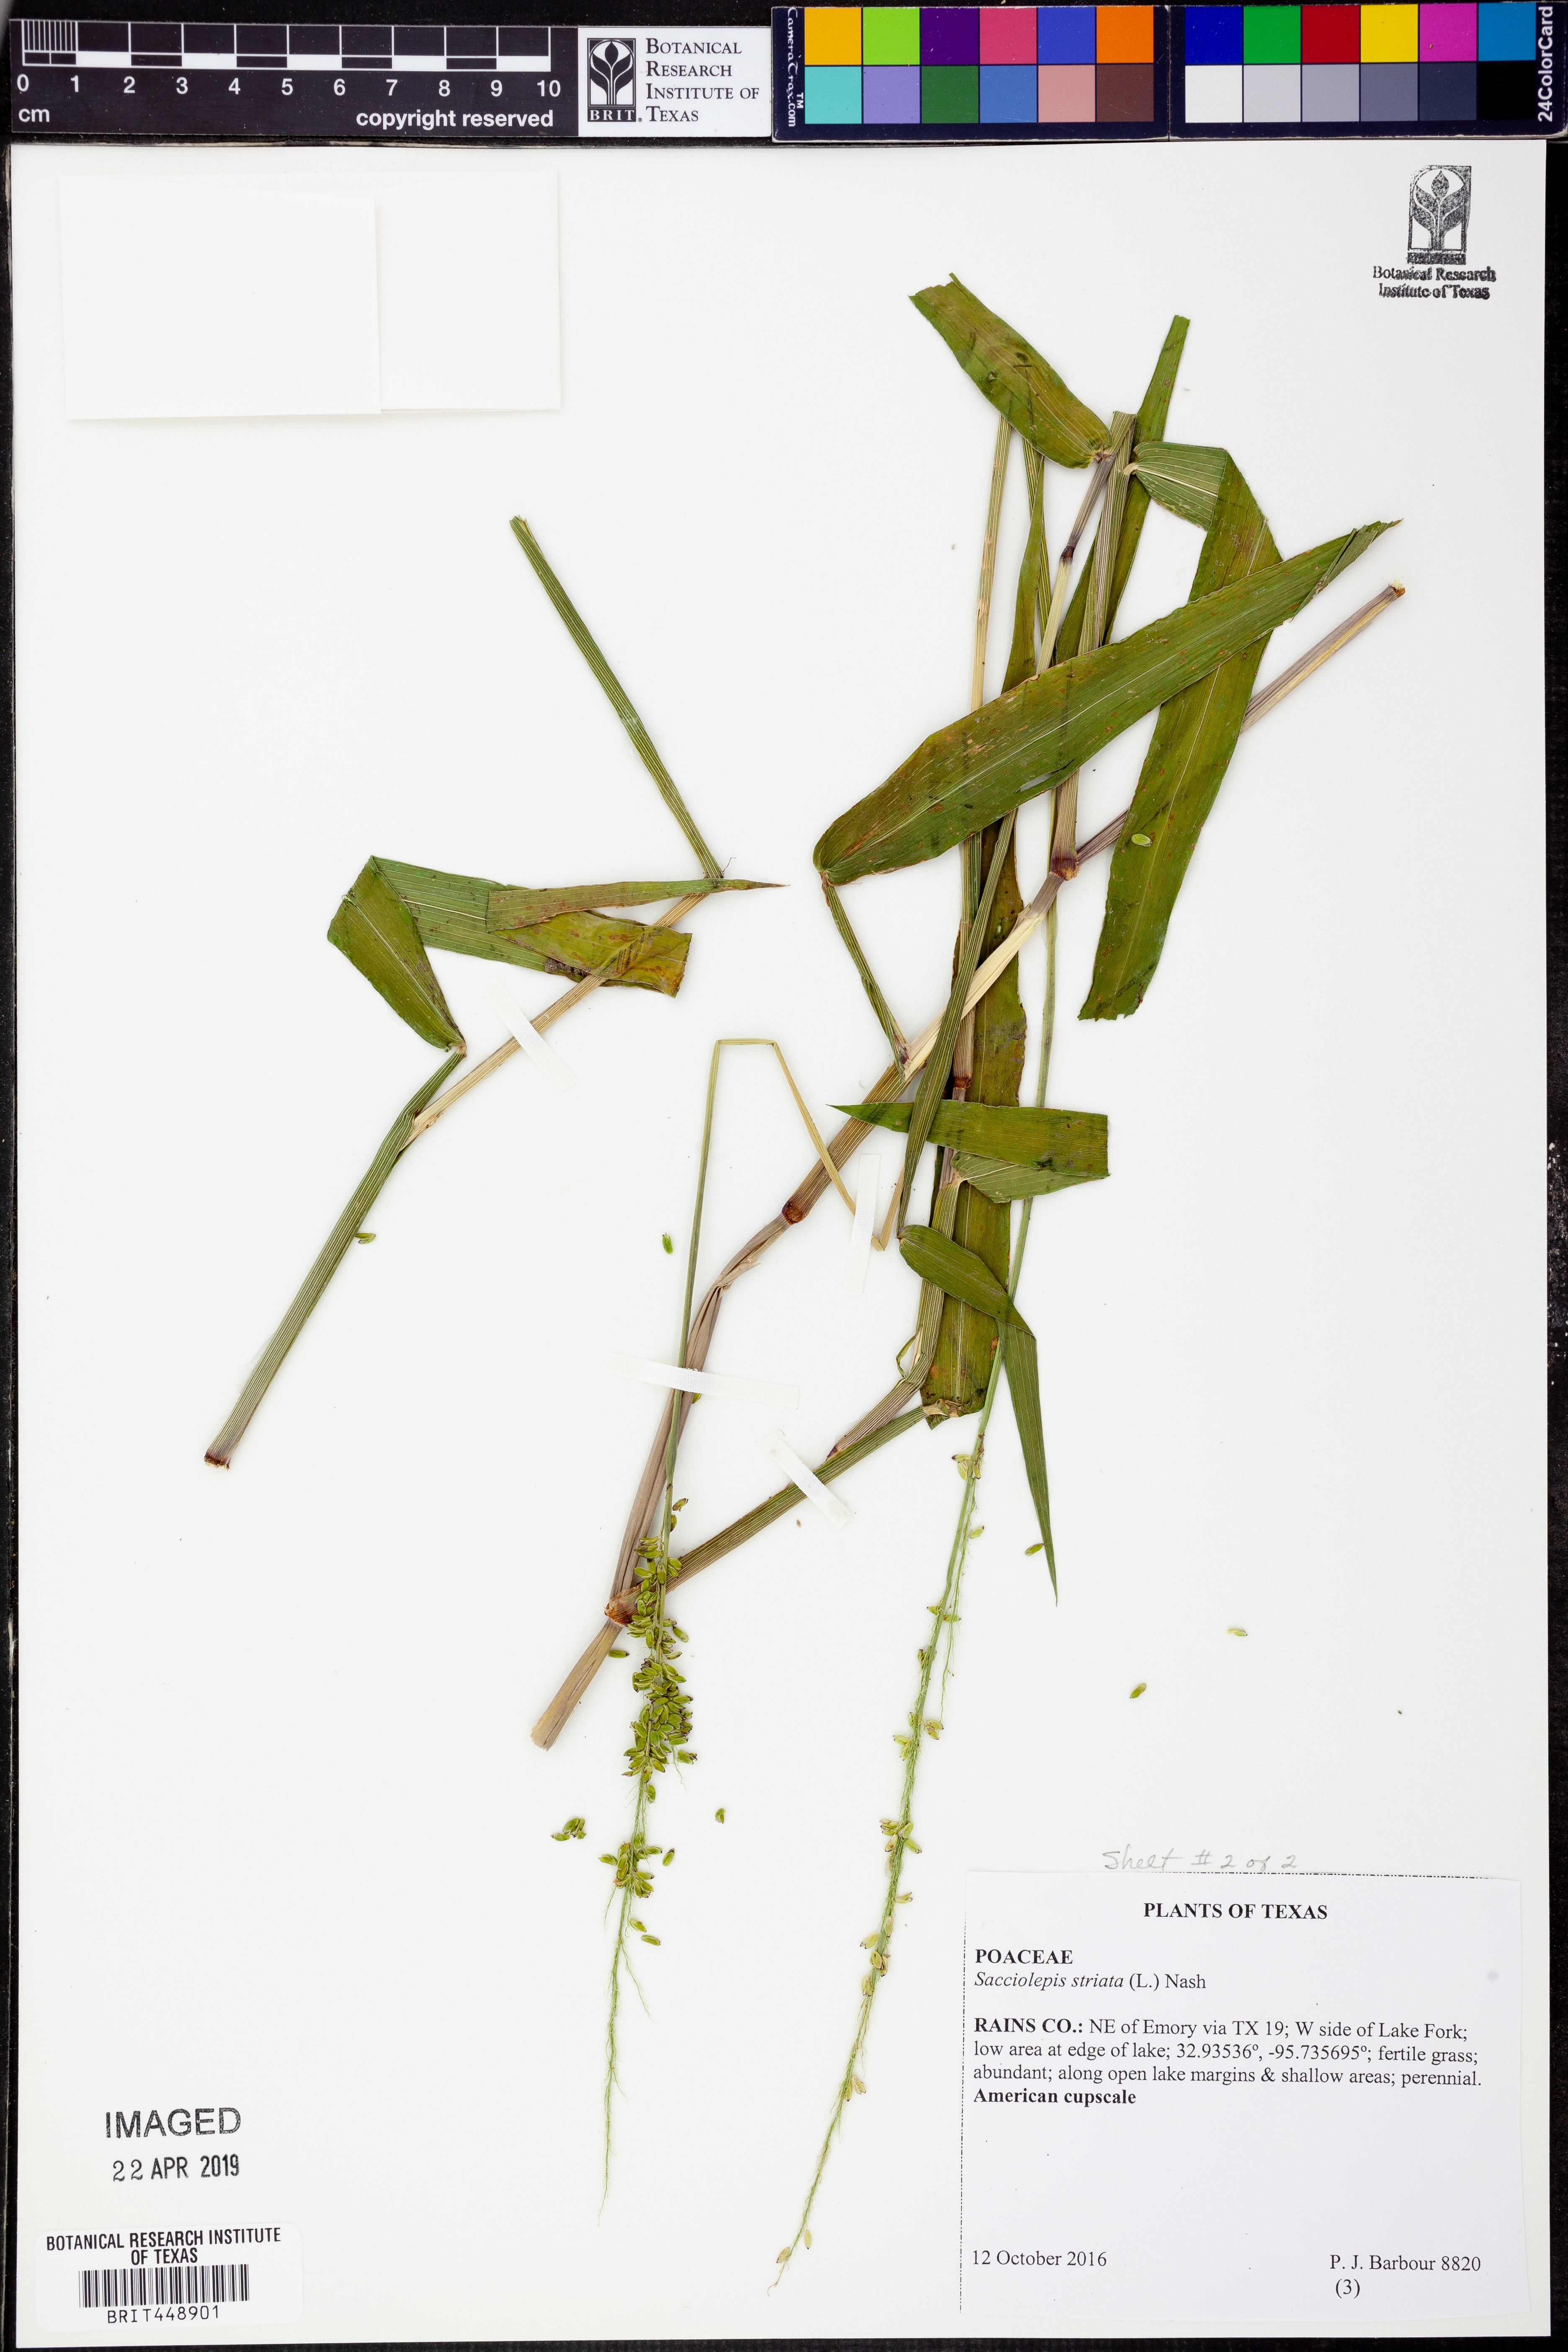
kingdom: Plantae
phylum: Tracheophyta
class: Liliopsida
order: Poales
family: Poaceae
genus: Sacciolepis
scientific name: Sacciolepis striata
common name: American cupscale
